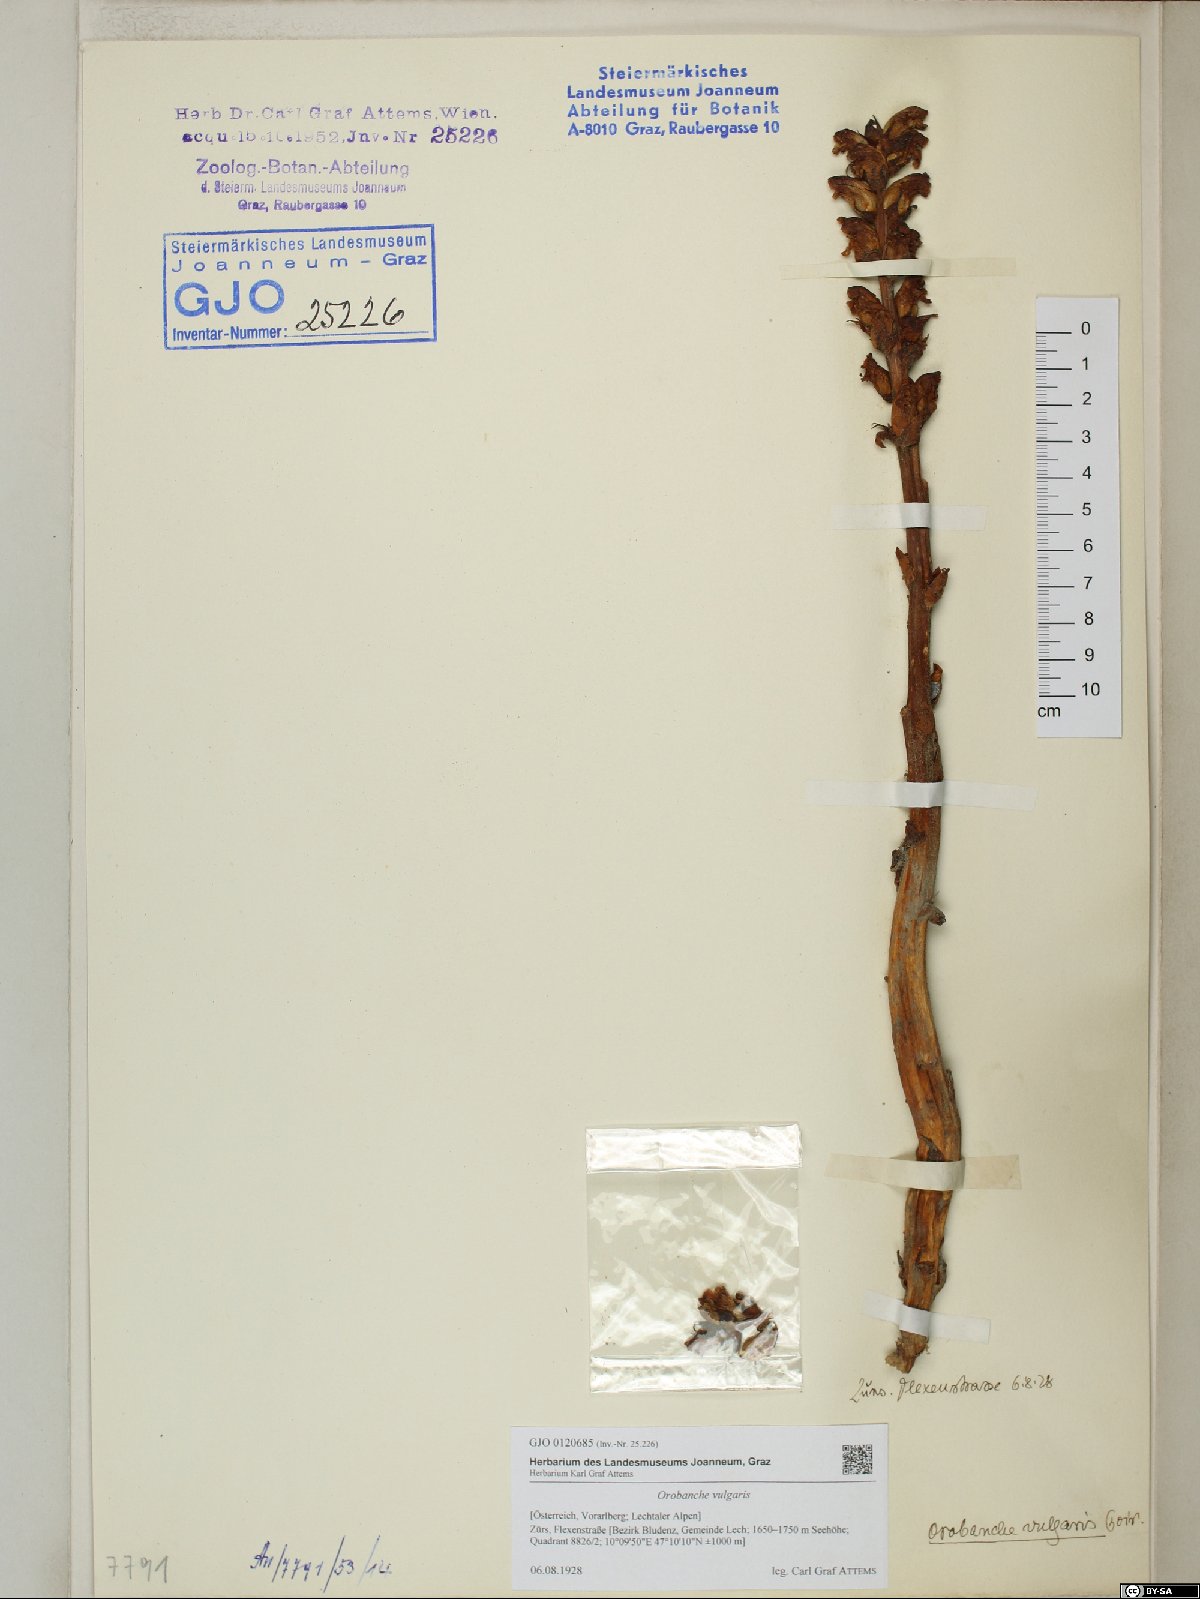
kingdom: Plantae
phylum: Tracheophyta
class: Magnoliopsida
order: Lamiales
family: Orobanchaceae
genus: Orobanche
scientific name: Orobanche caryophyllacea
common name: Bedstraw broomrape
